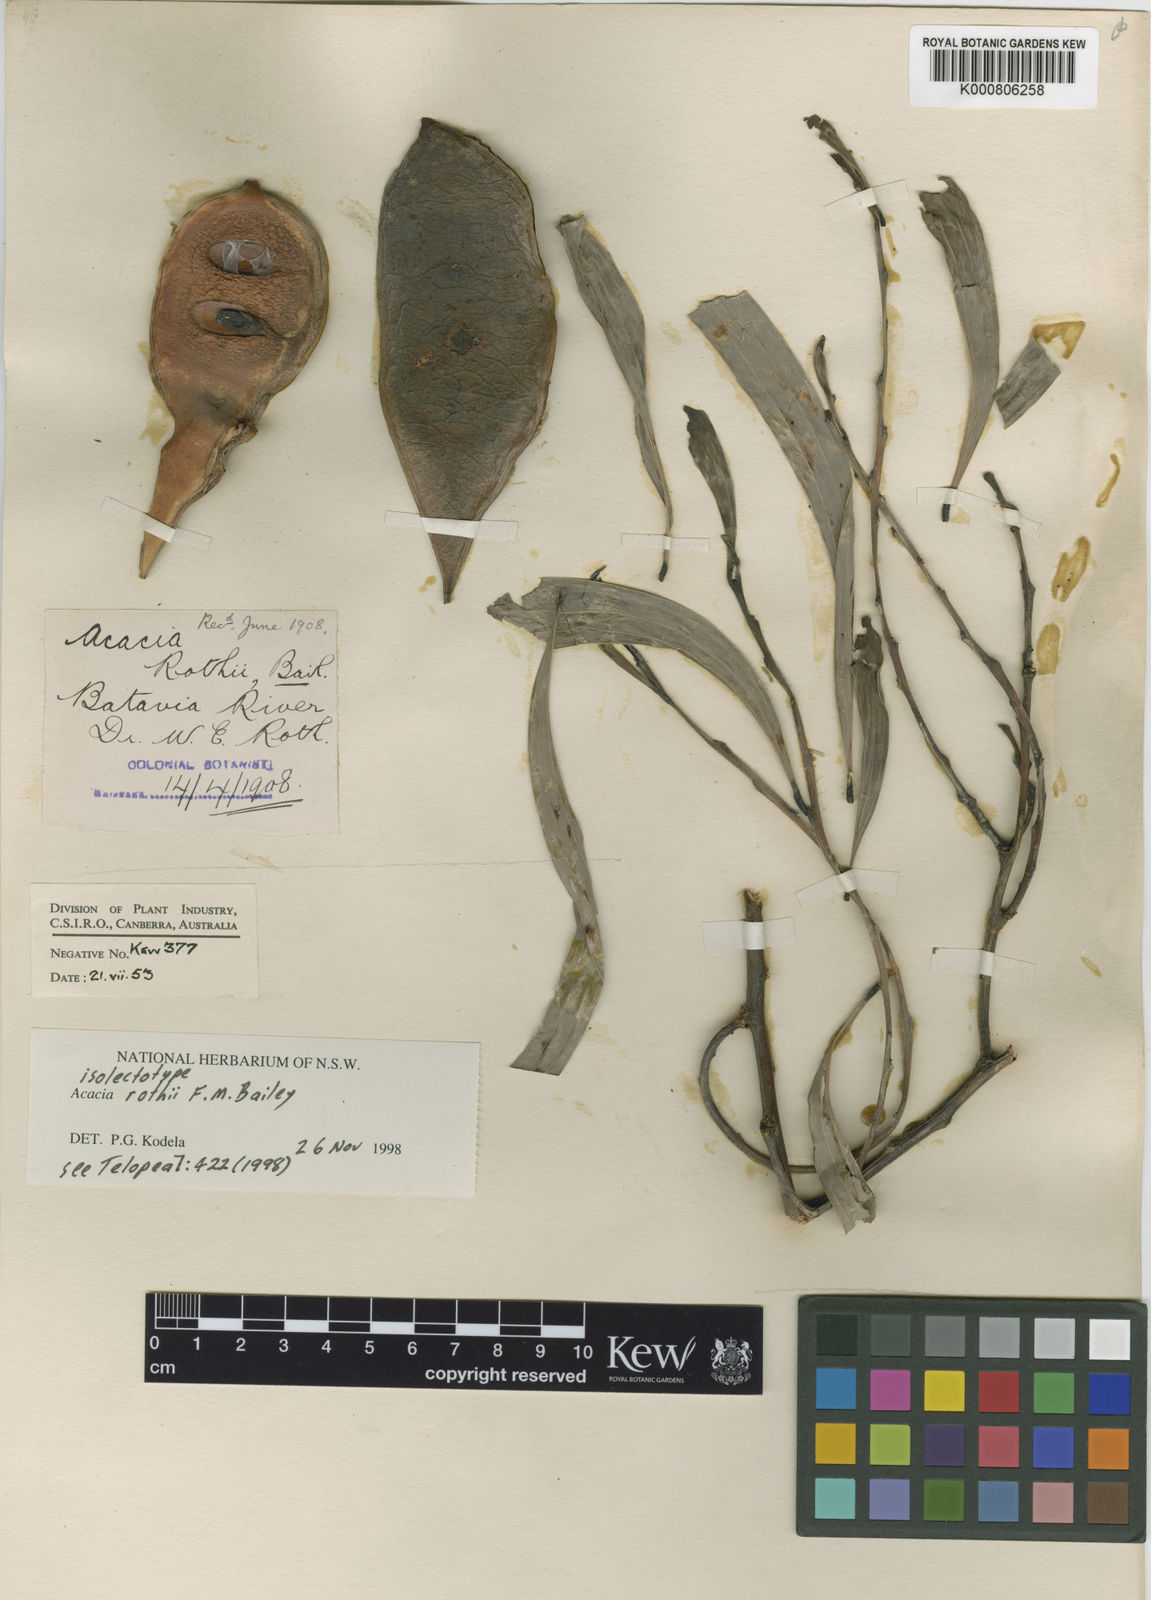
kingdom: Plantae
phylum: Tracheophyta
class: Magnoliopsida
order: Fabales
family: Fabaceae
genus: Acacia
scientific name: Acacia rothii
